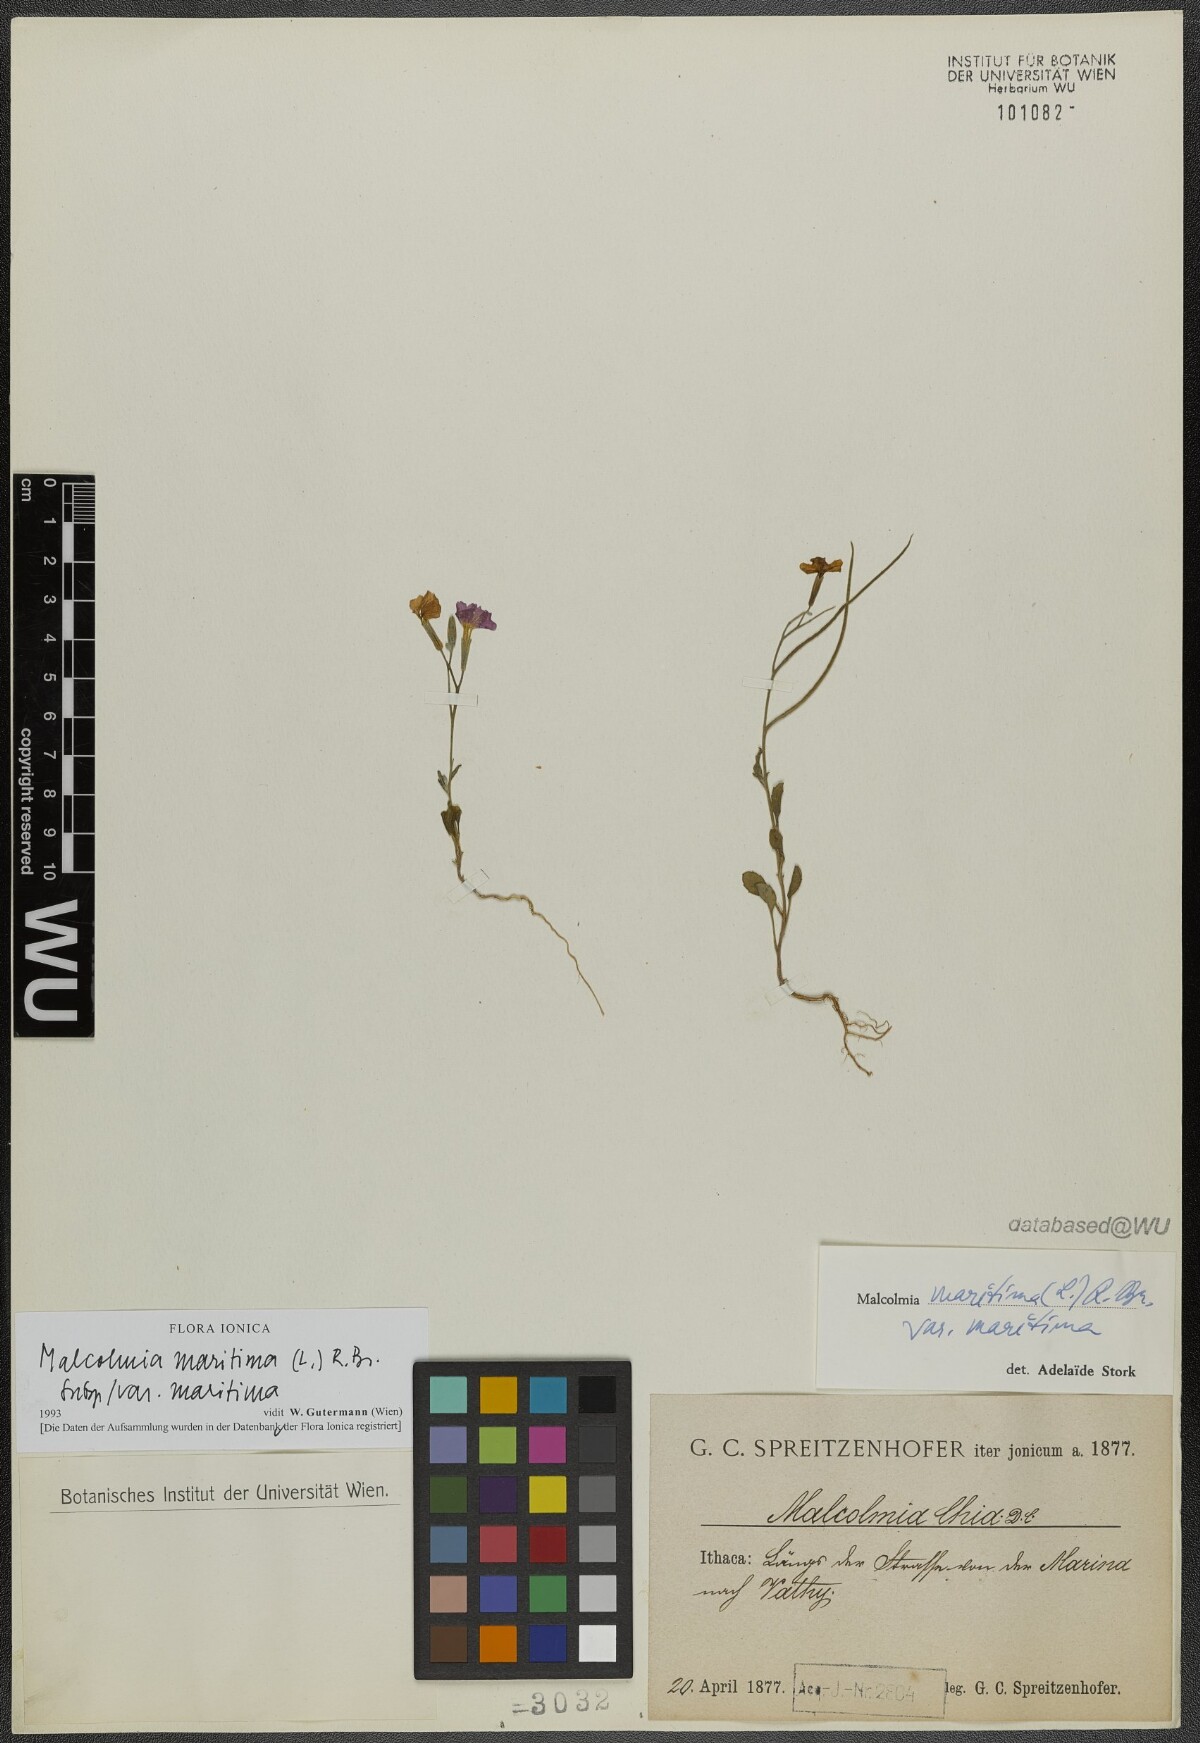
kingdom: Plantae
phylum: Tracheophyta
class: Magnoliopsida
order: Brassicales
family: Brassicaceae
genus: Malcolmia
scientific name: Malcolmia maritima
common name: Virginia stock
